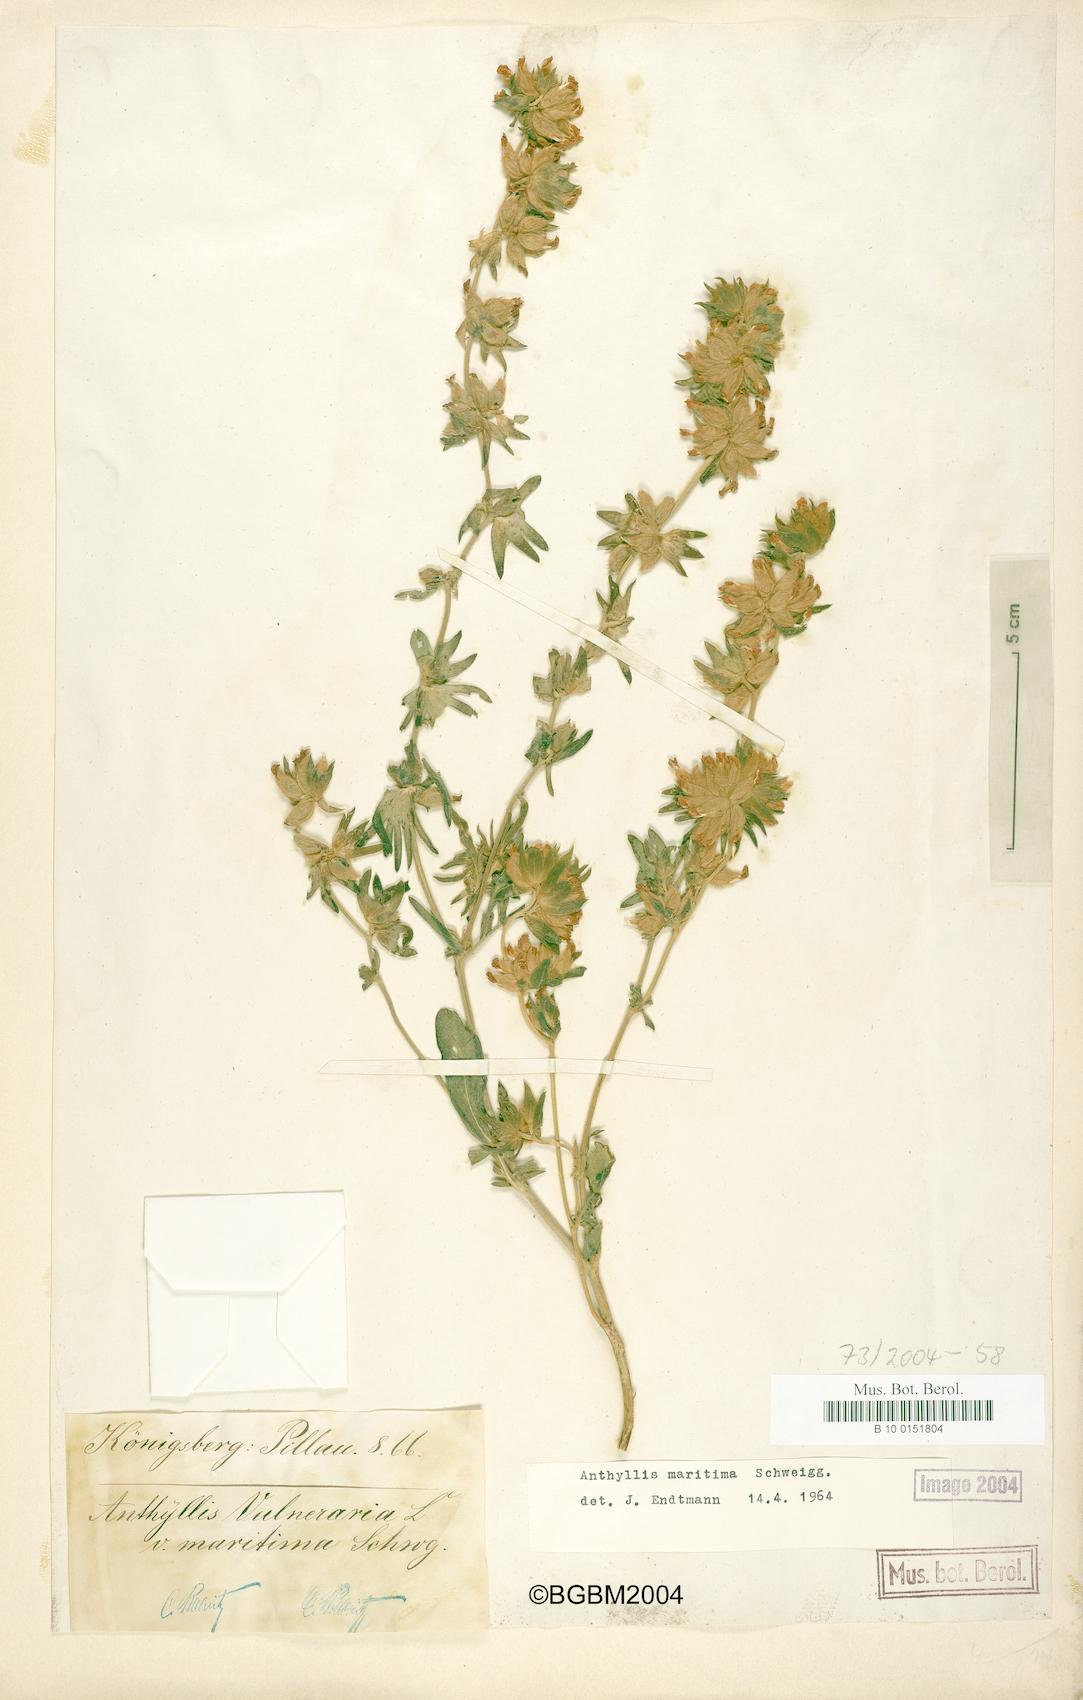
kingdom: Plantae
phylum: Tracheophyta
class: Magnoliopsida
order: Fabales
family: Fabaceae
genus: Anthyllis
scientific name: Anthyllis vulneraria
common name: Kidney vetch
